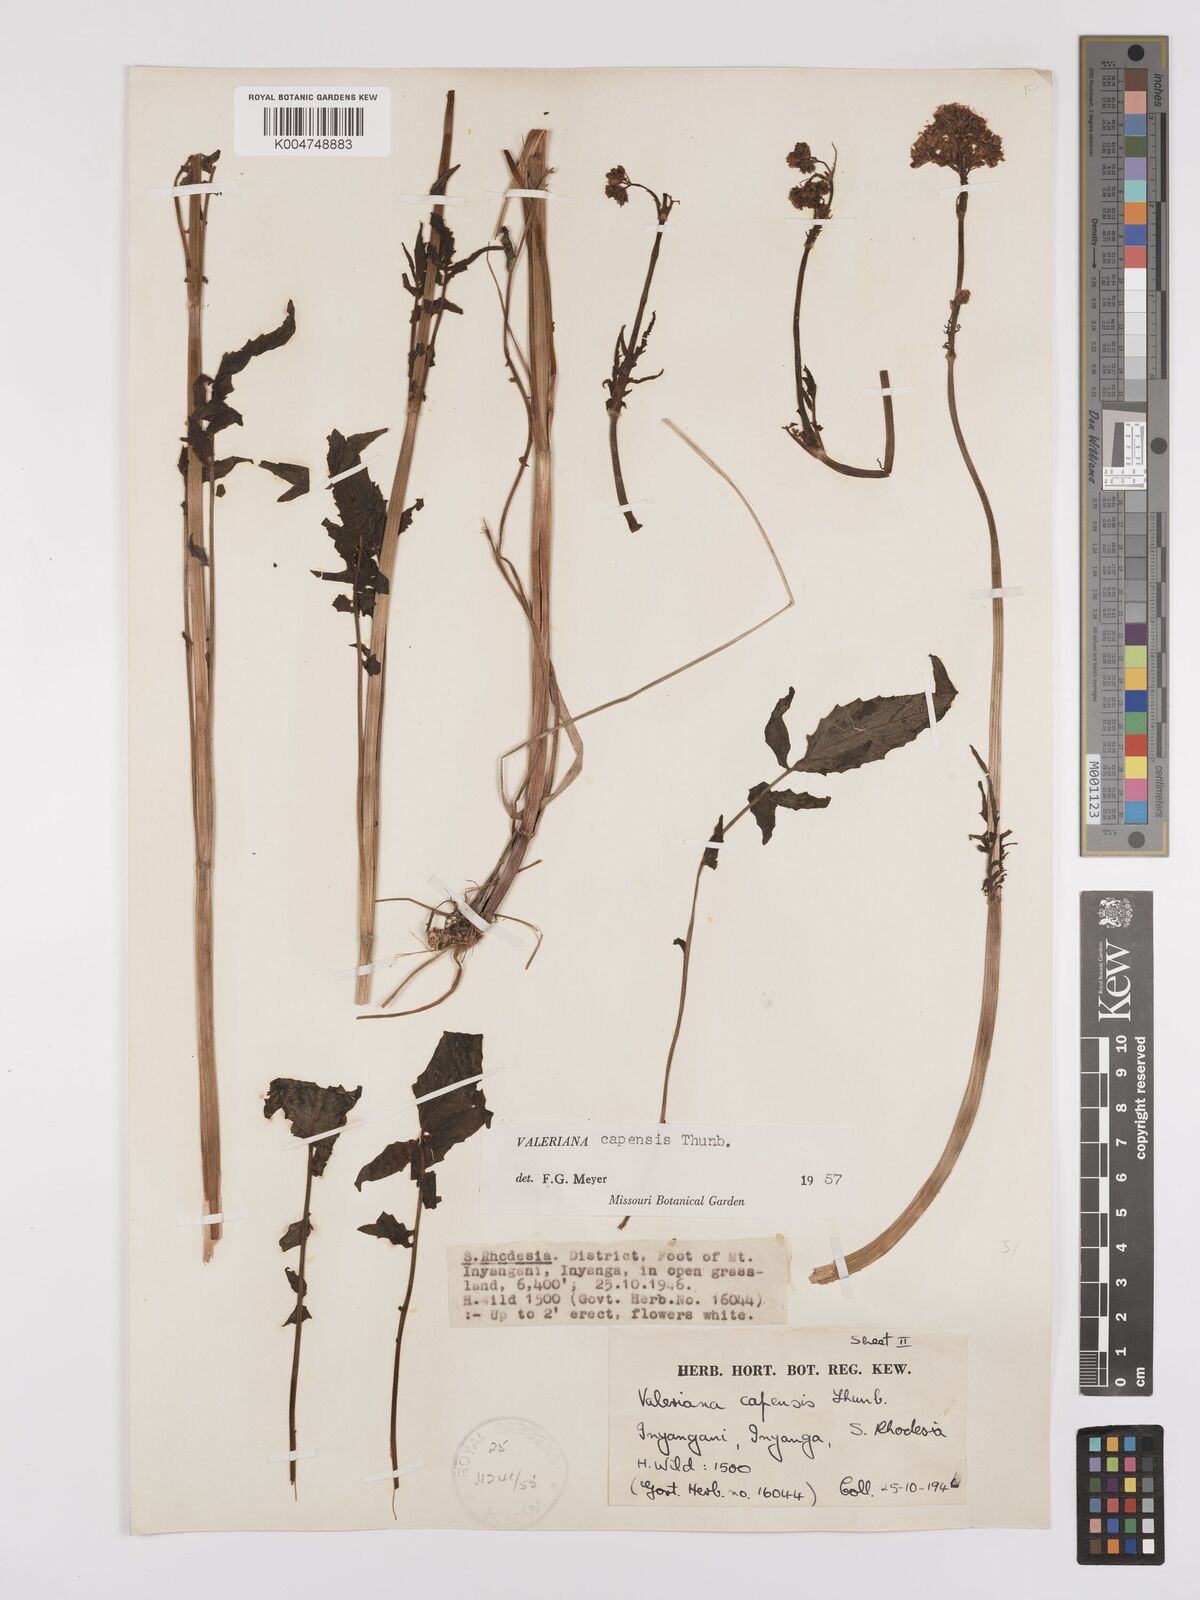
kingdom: Plantae
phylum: Tracheophyta
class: Magnoliopsida
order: Dipsacales
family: Caprifoliaceae
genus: Valeriana
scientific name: Valeriana capensis
